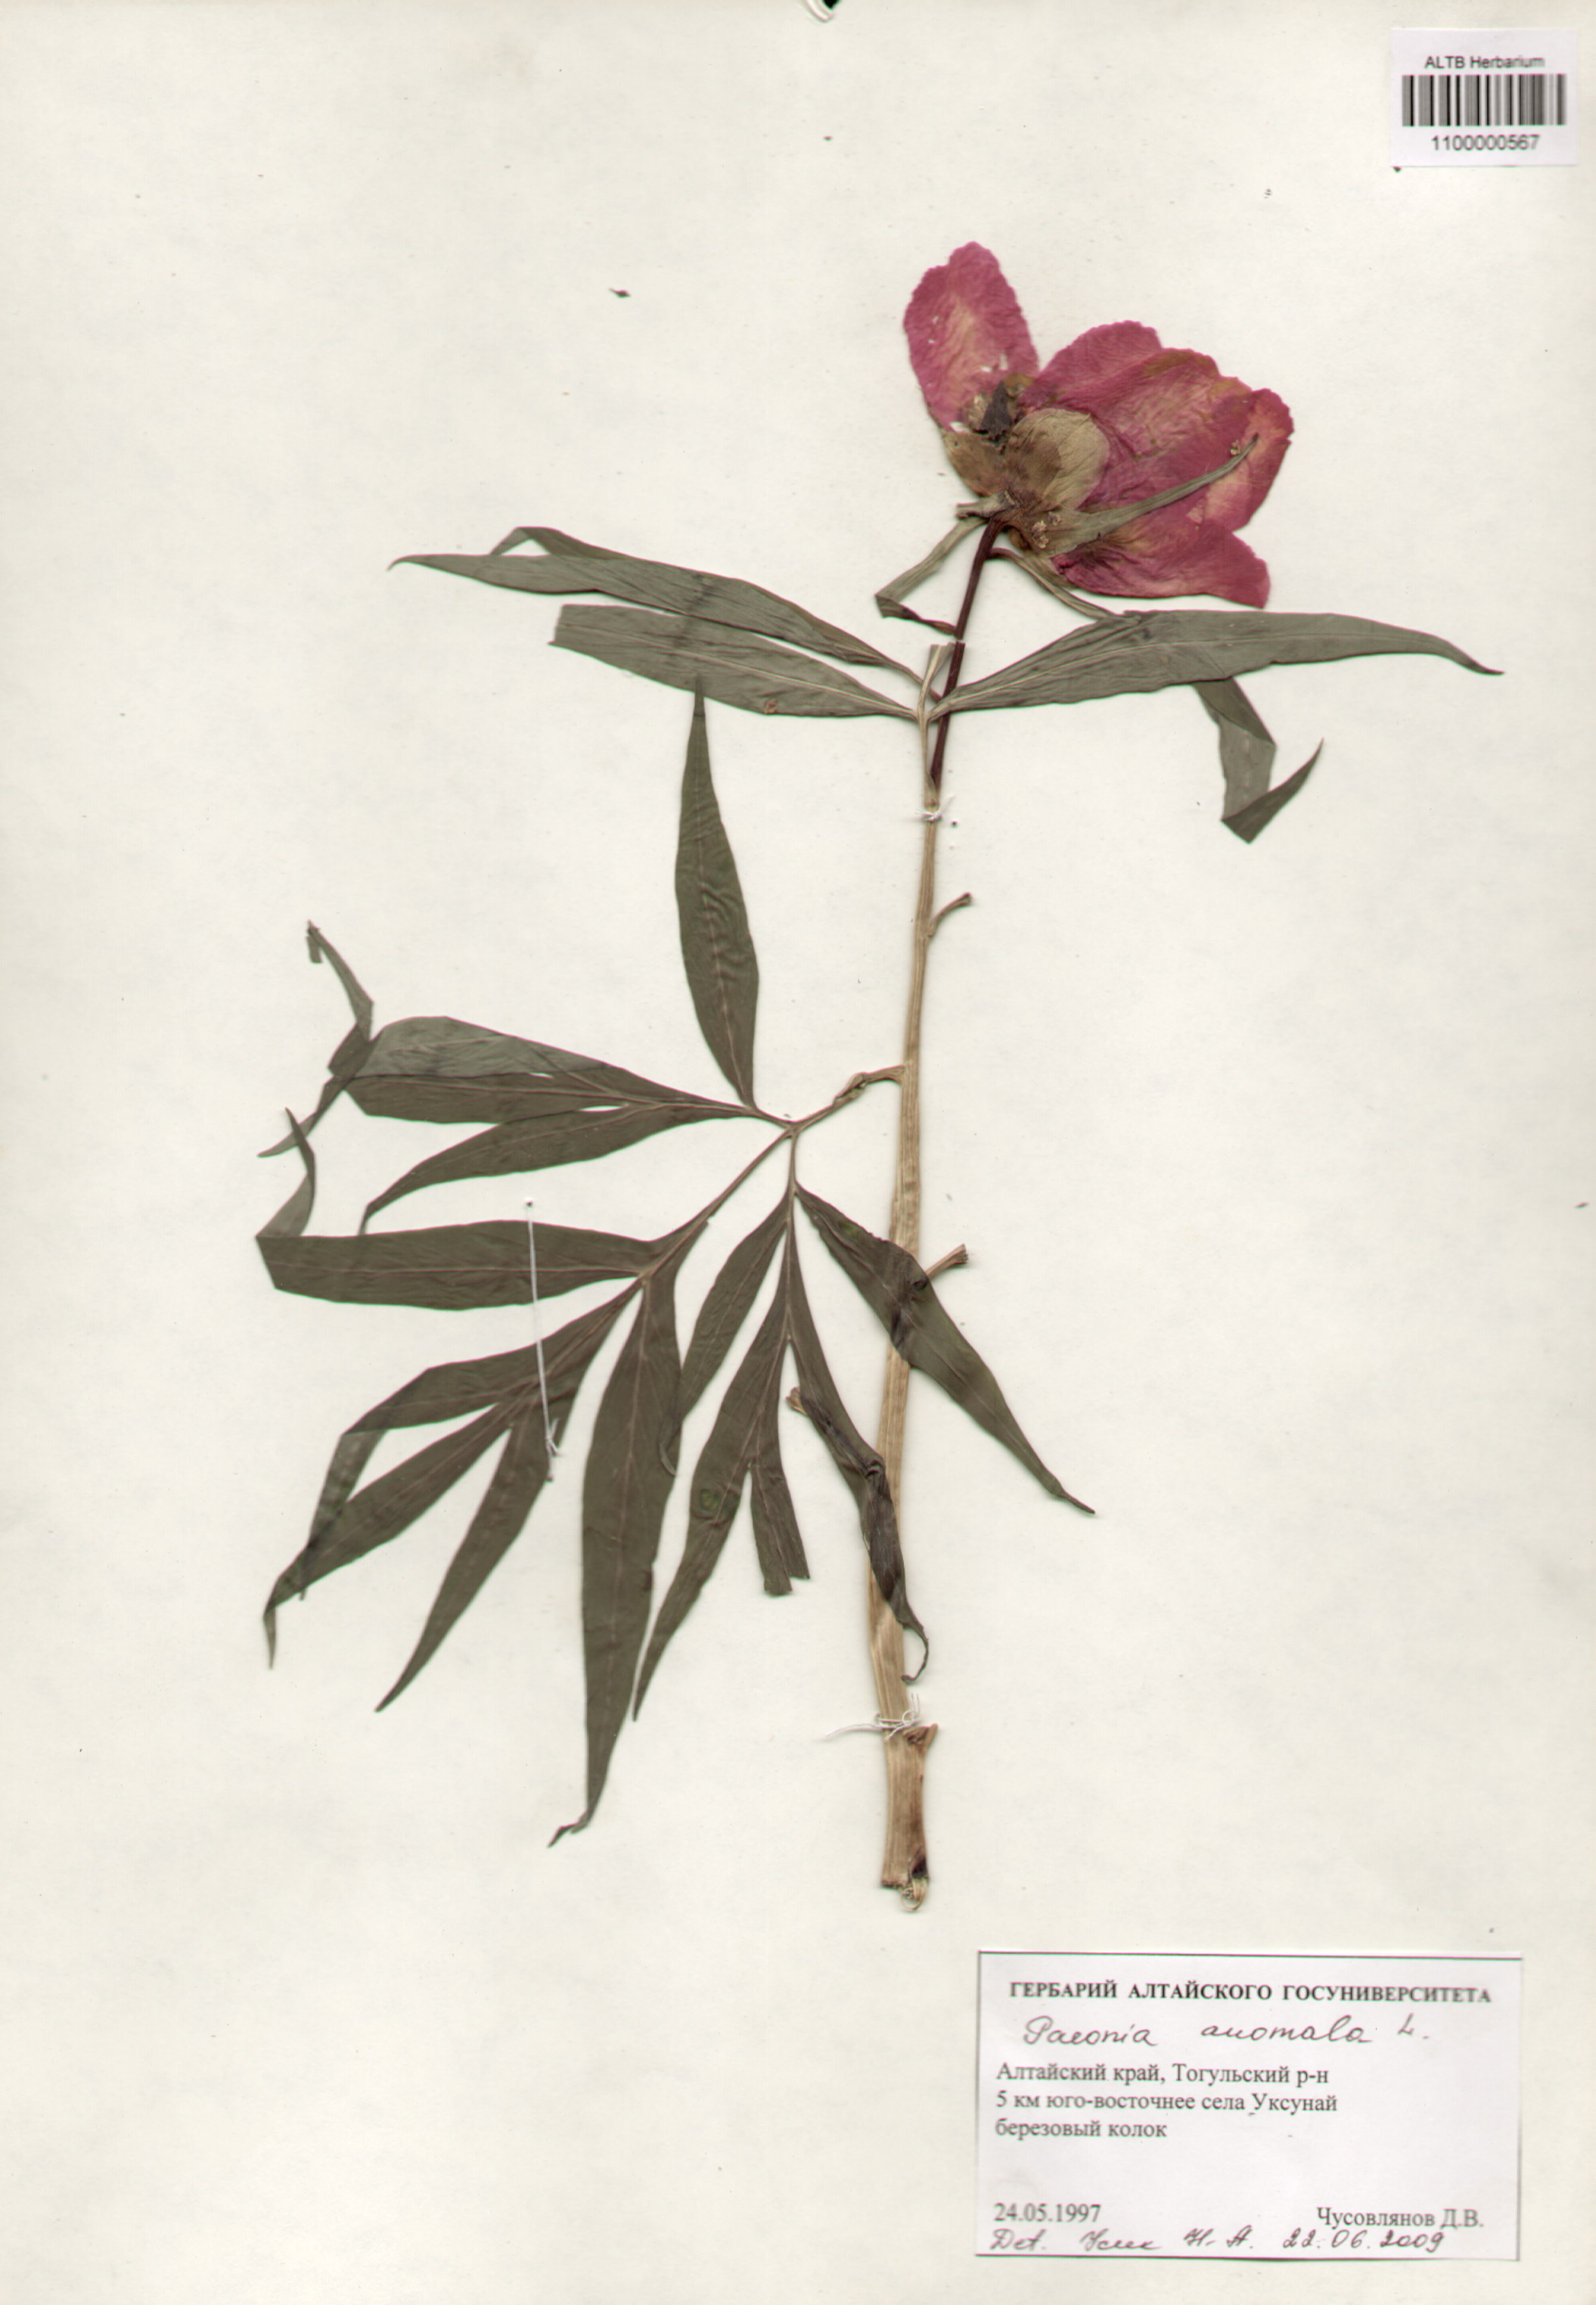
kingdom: Plantae
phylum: Tracheophyta
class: Magnoliopsida
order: Saxifragales
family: Paeoniaceae
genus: Paeonia
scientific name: Paeonia anomala
